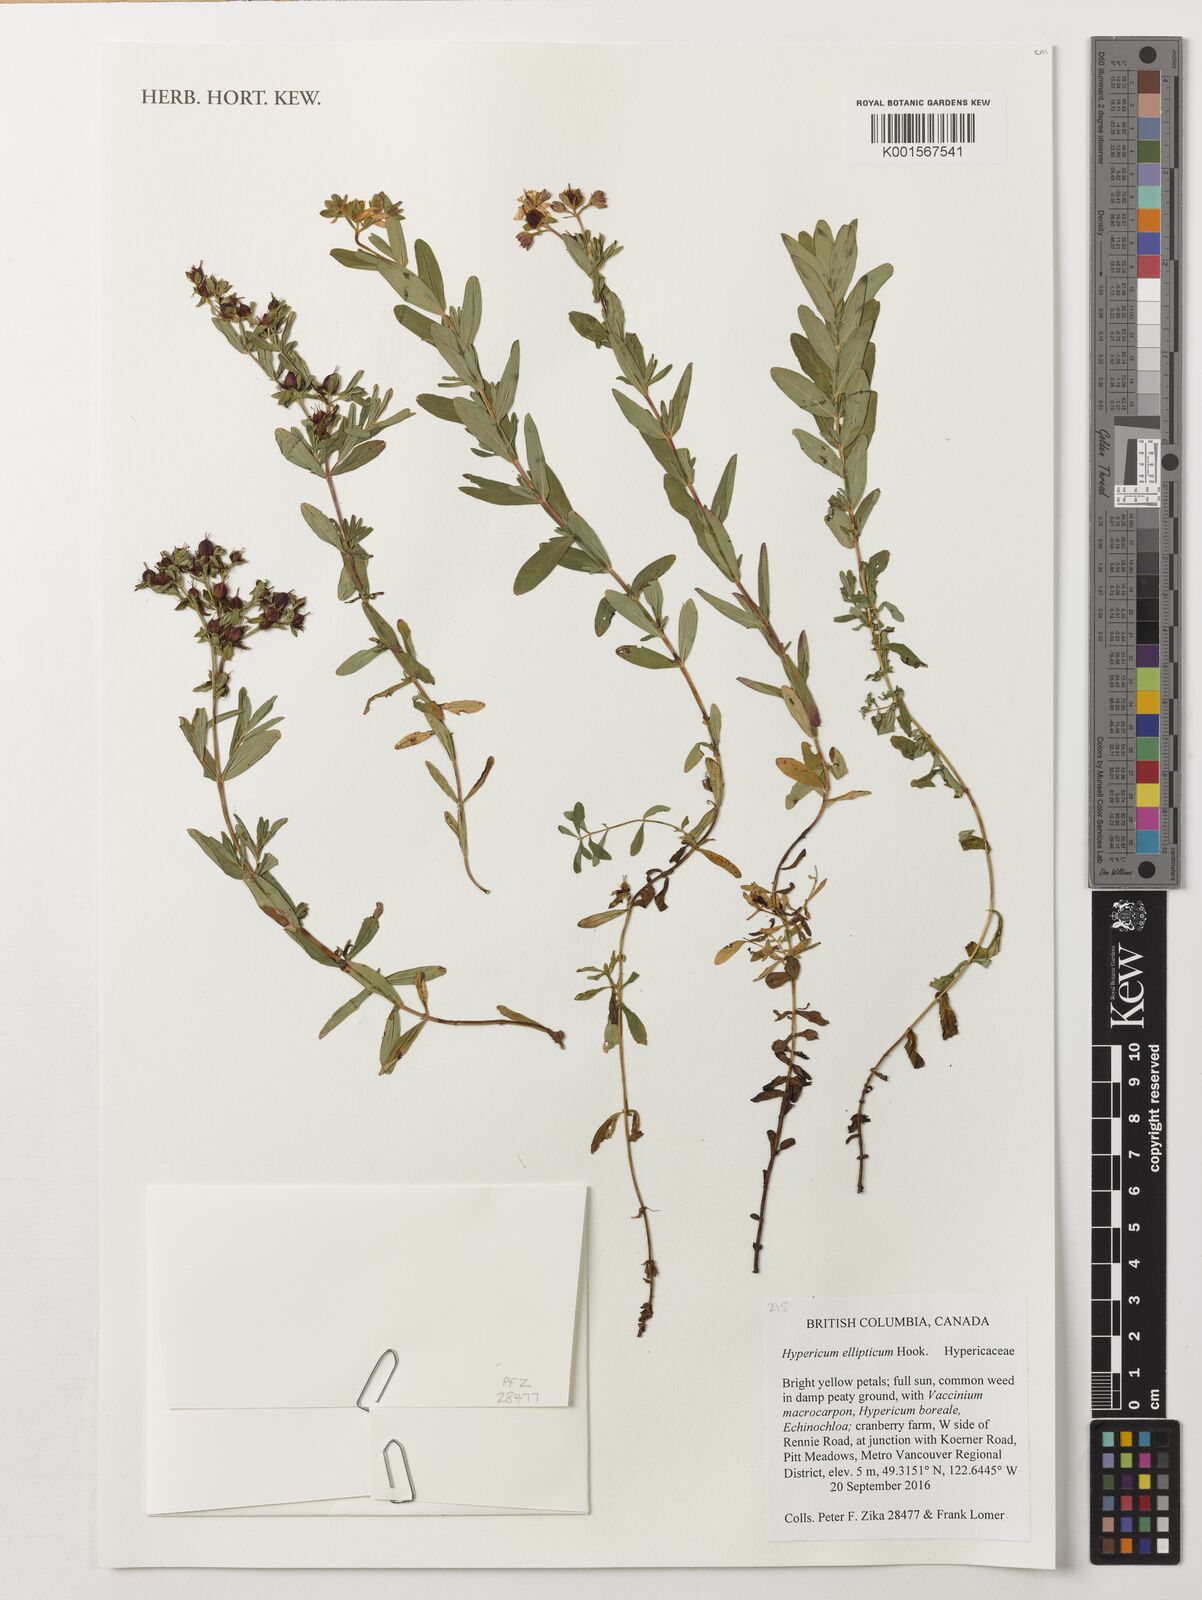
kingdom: Plantae
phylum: Tracheophyta
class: Magnoliopsida
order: Malpighiales
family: Hypericaceae
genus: Hypericum
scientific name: Hypericum ellipticum
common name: Elliptic st. john's-wort
